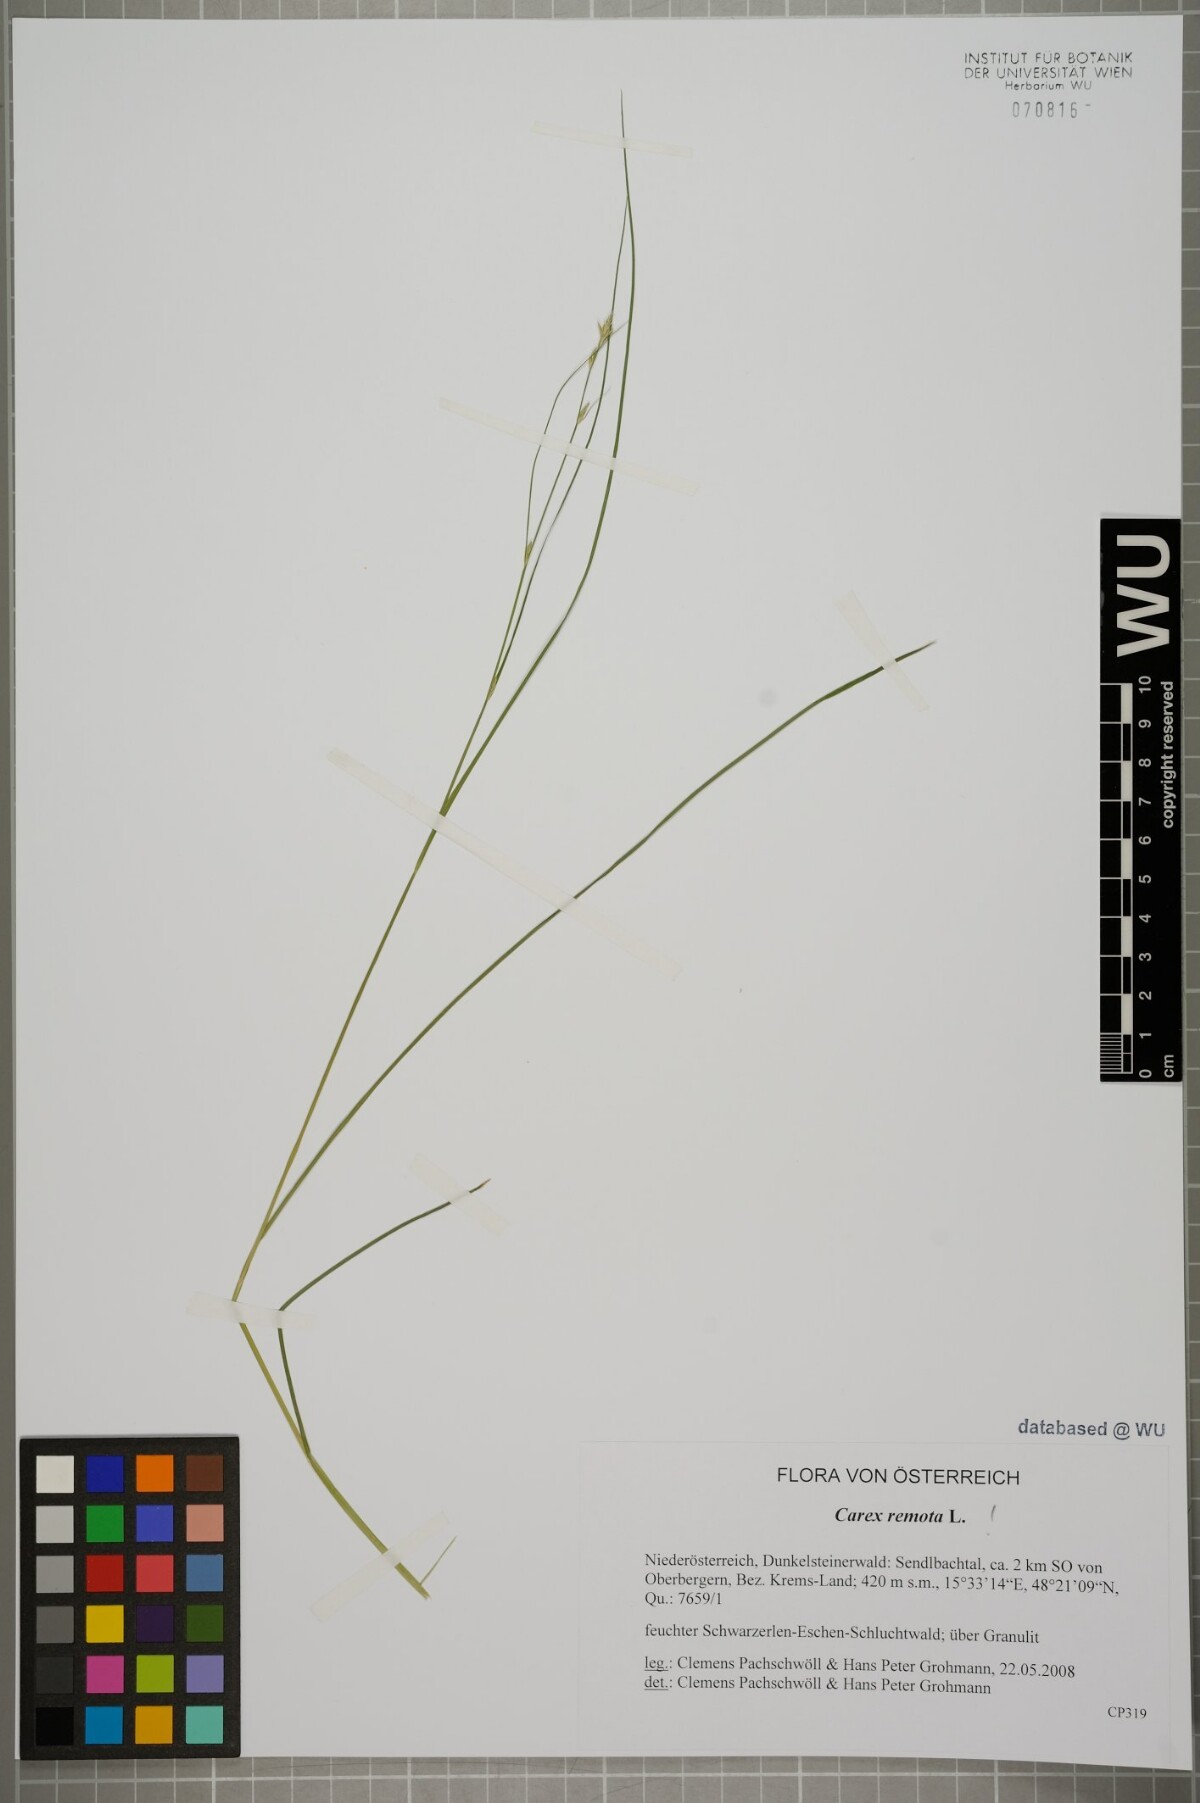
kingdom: Plantae
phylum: Tracheophyta
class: Liliopsida
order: Poales
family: Cyperaceae
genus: Carex
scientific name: Carex remota
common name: Remote sedge
